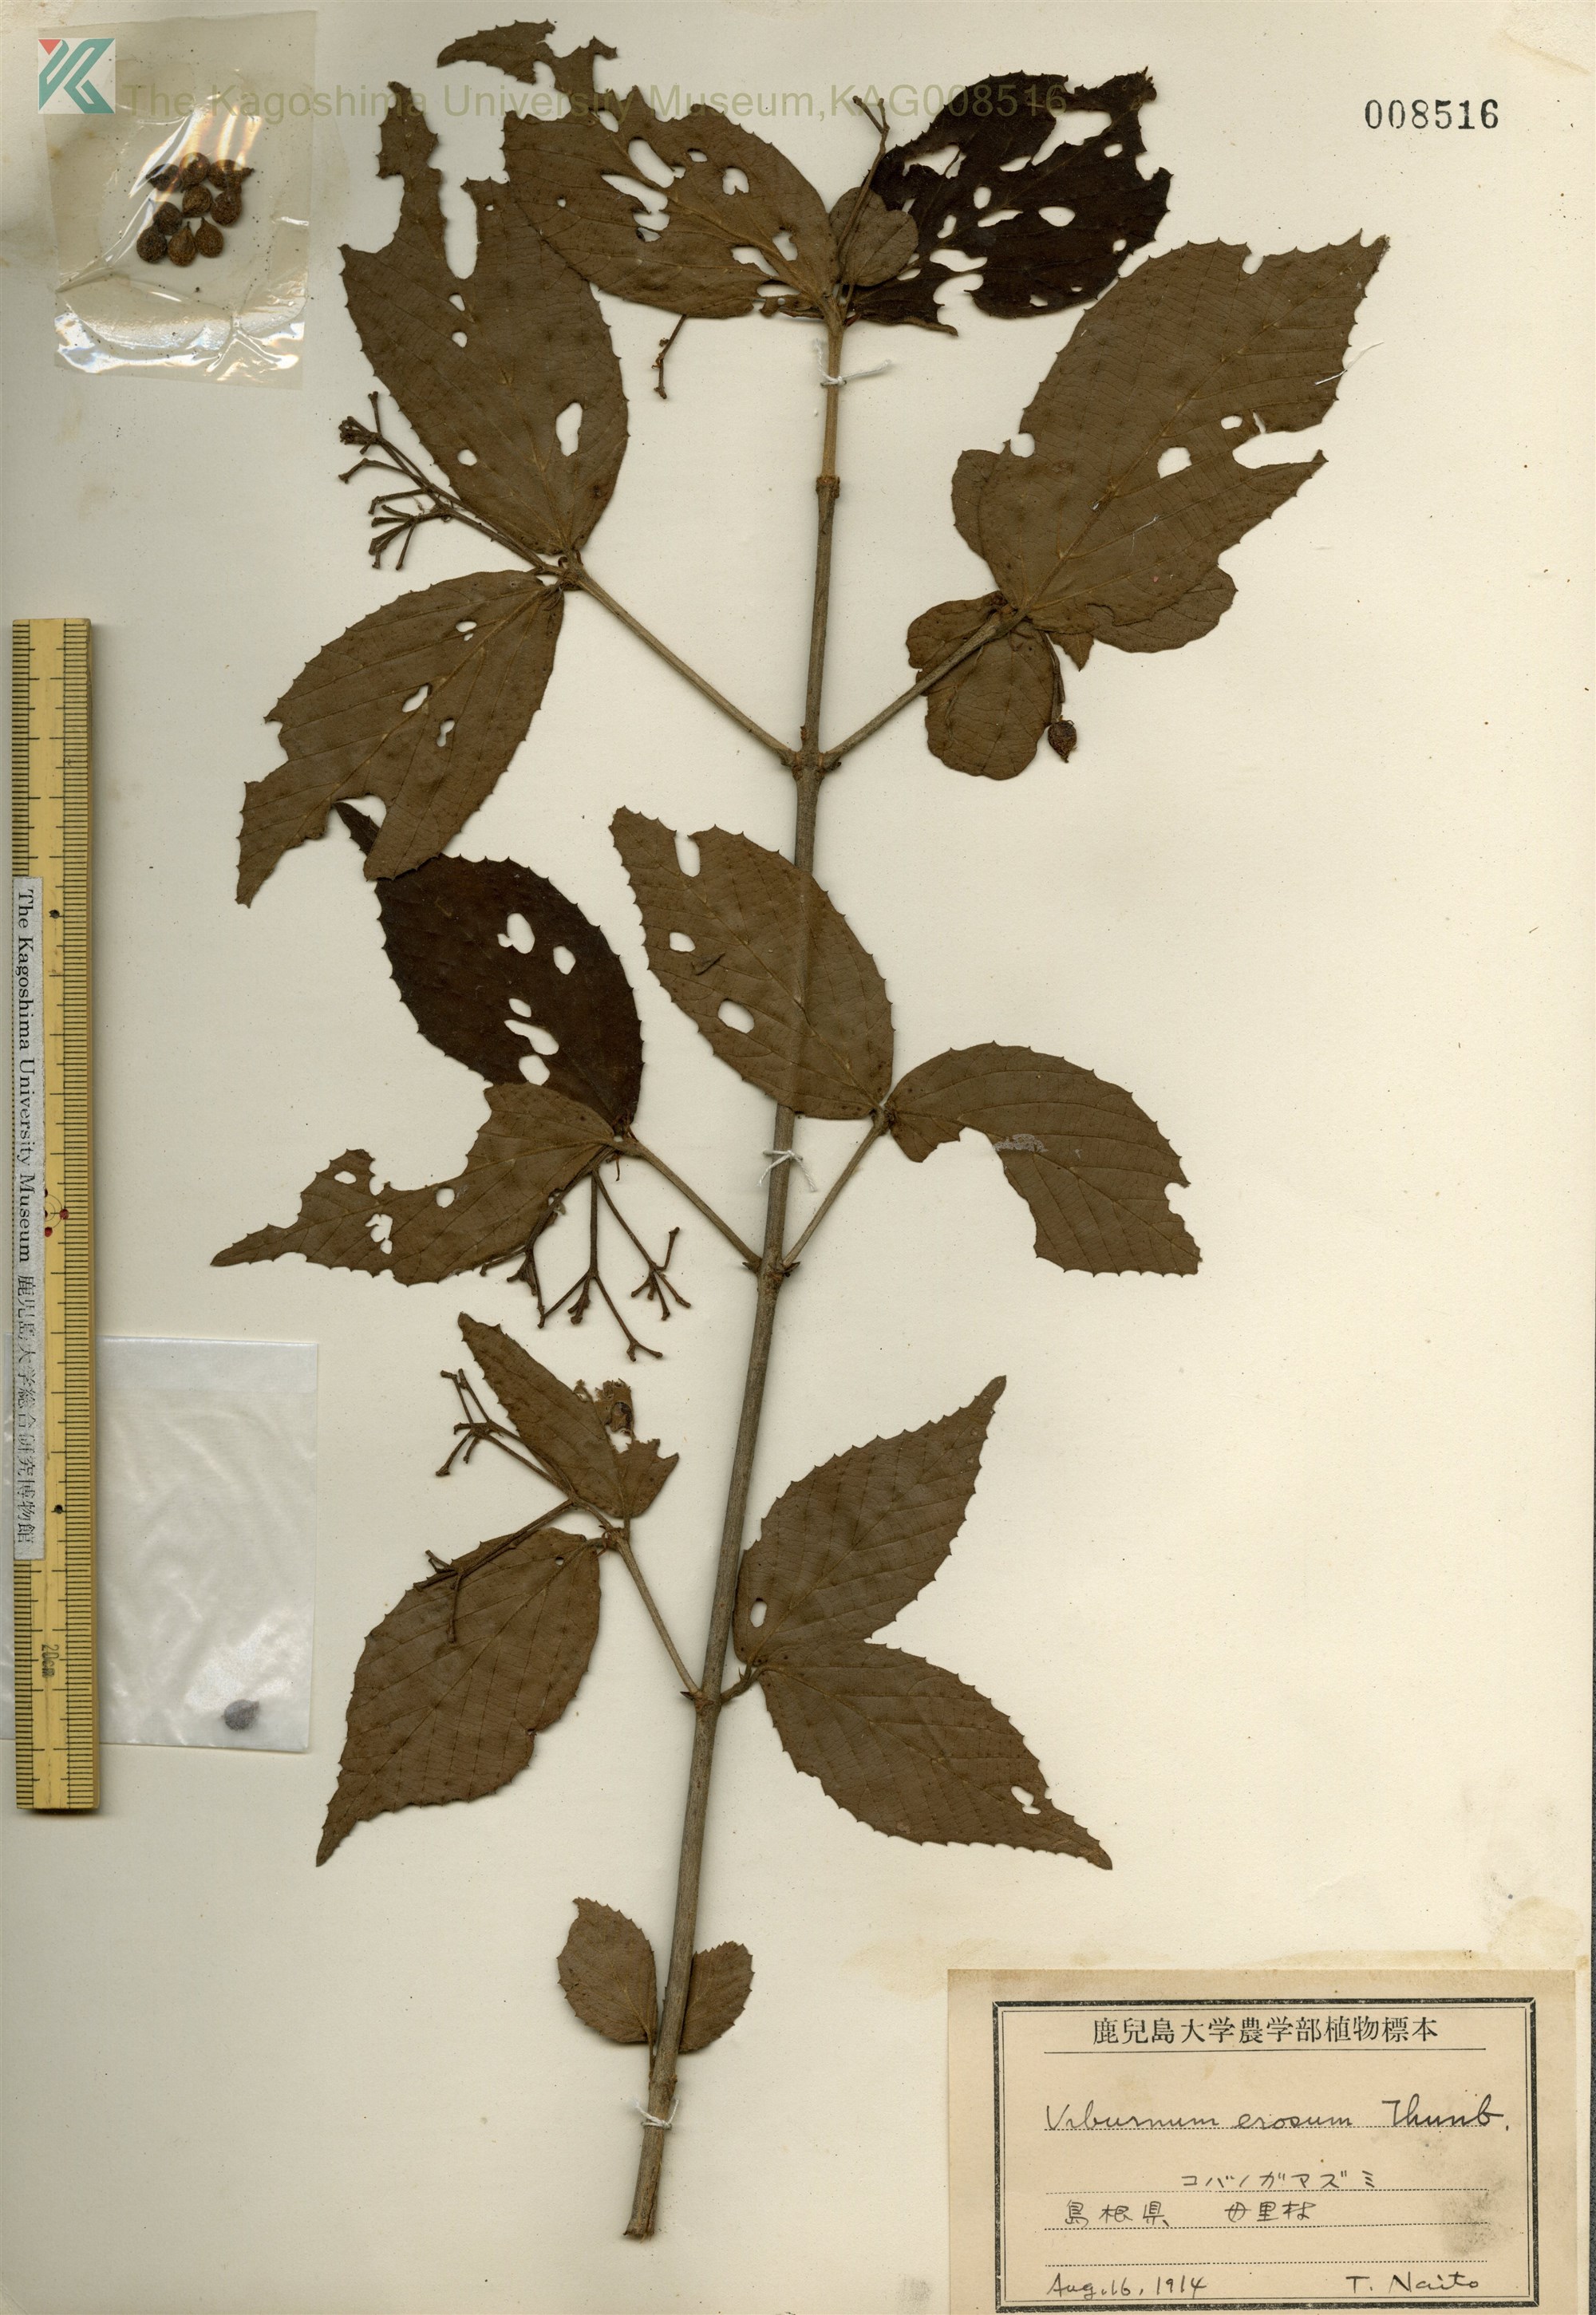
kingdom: Plantae
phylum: Tracheophyta
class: Magnoliopsida
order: Dipsacales
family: Viburnaceae
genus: Viburnum
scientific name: Viburnum erosum
